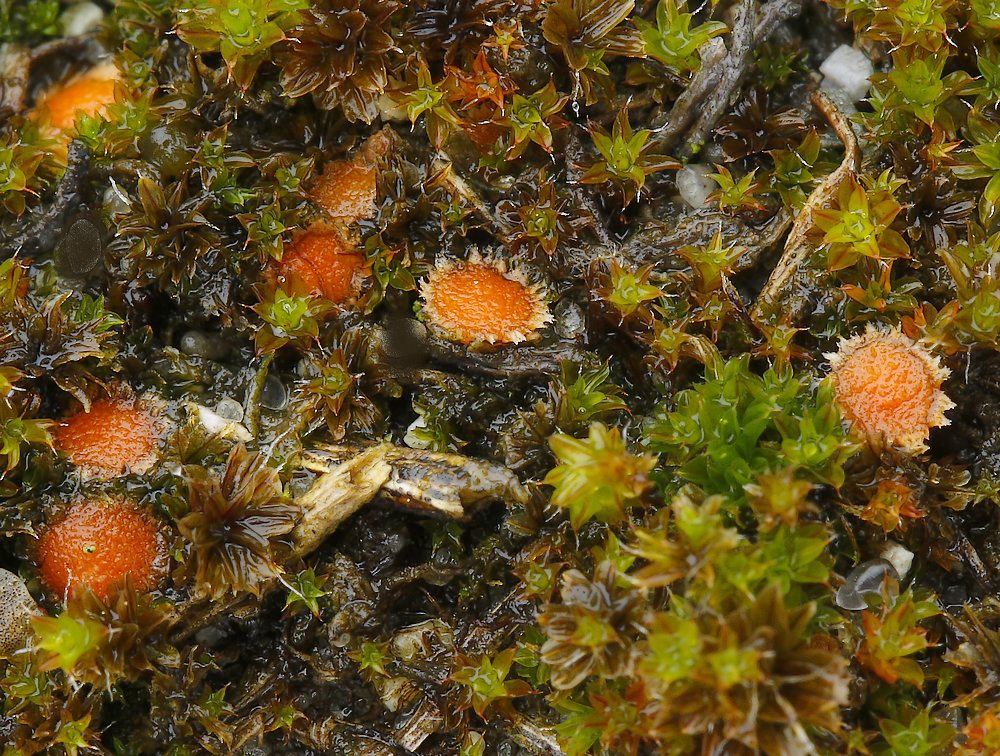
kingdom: Fungi
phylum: Ascomycota
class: Pezizomycetes
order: Pezizales
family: Pyronemataceae
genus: Lamprospora
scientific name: Lamprospora tortulae-ruralis
